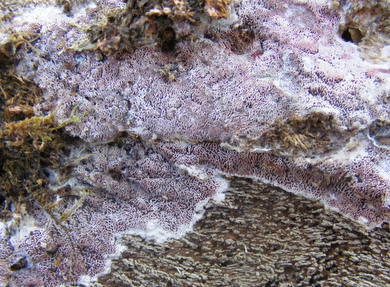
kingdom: Fungi
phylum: Basidiomycota
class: Agaricomycetes
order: Polyporales
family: Irpicaceae
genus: Ceriporia
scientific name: Ceriporia excelsa
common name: lilla voksporesvamp
